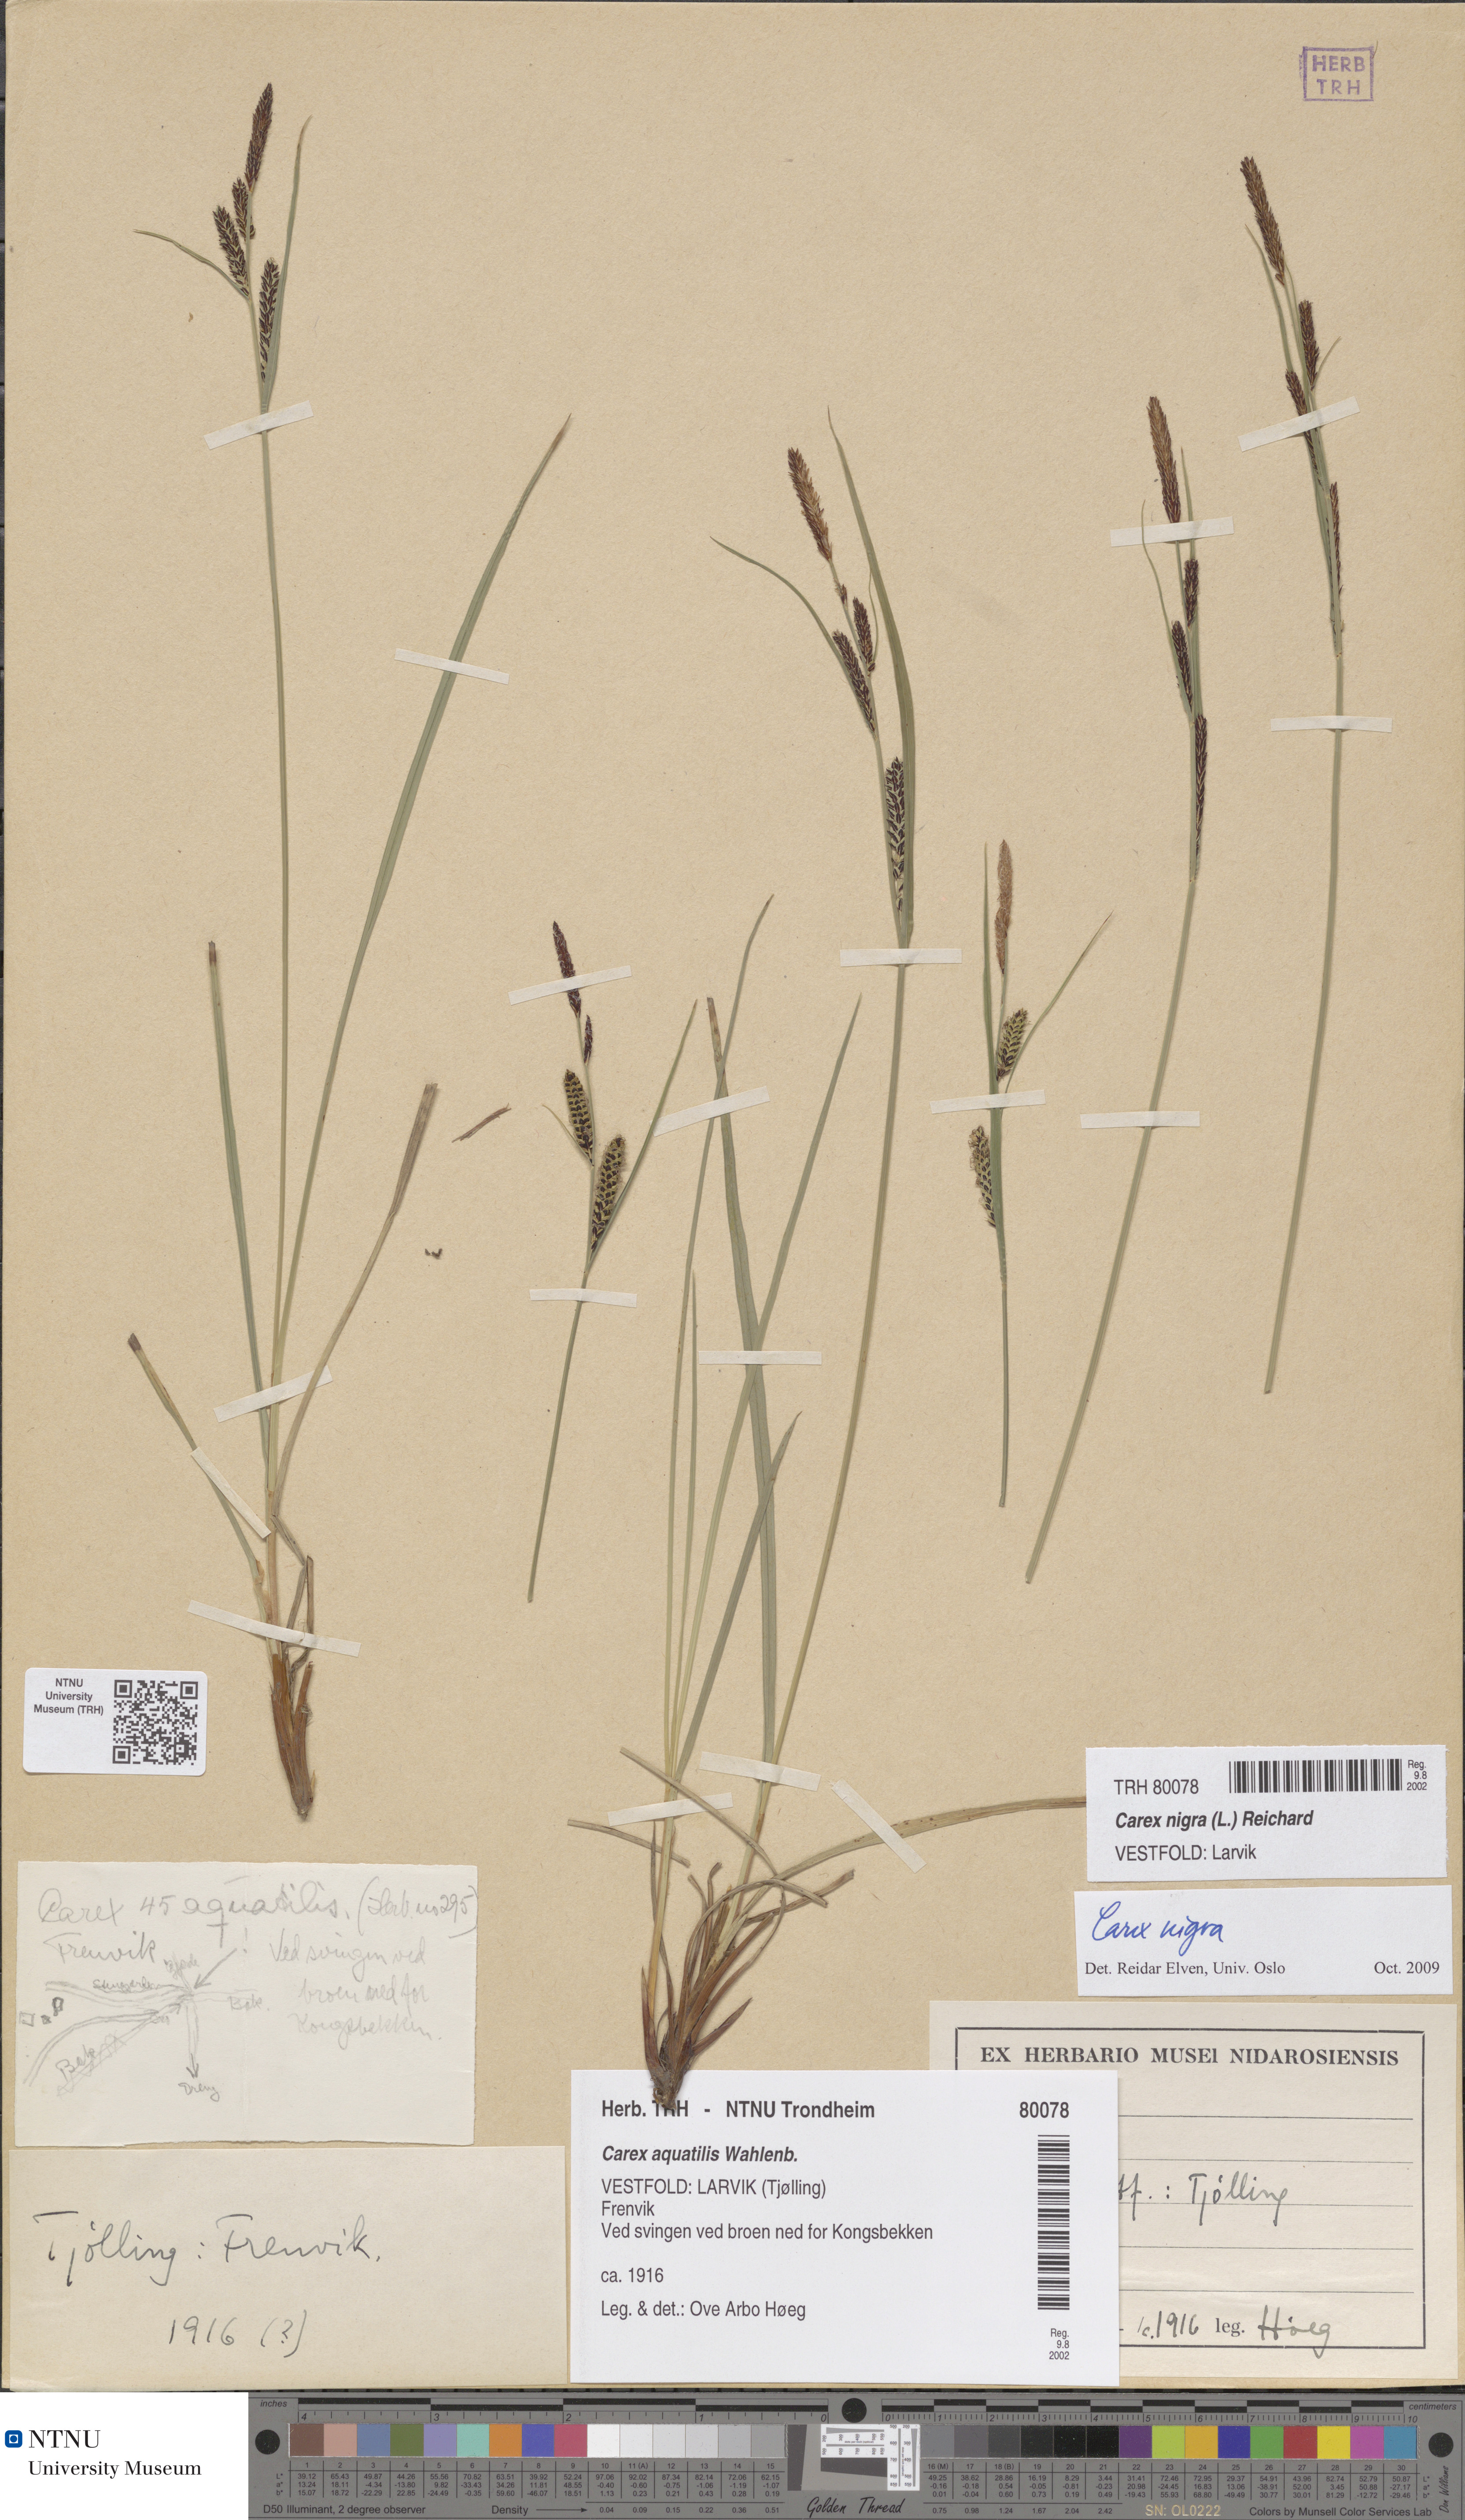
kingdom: Plantae
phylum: Tracheophyta
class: Liliopsida
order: Poales
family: Cyperaceae
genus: Carex
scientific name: Carex nigra
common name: Common sedge
